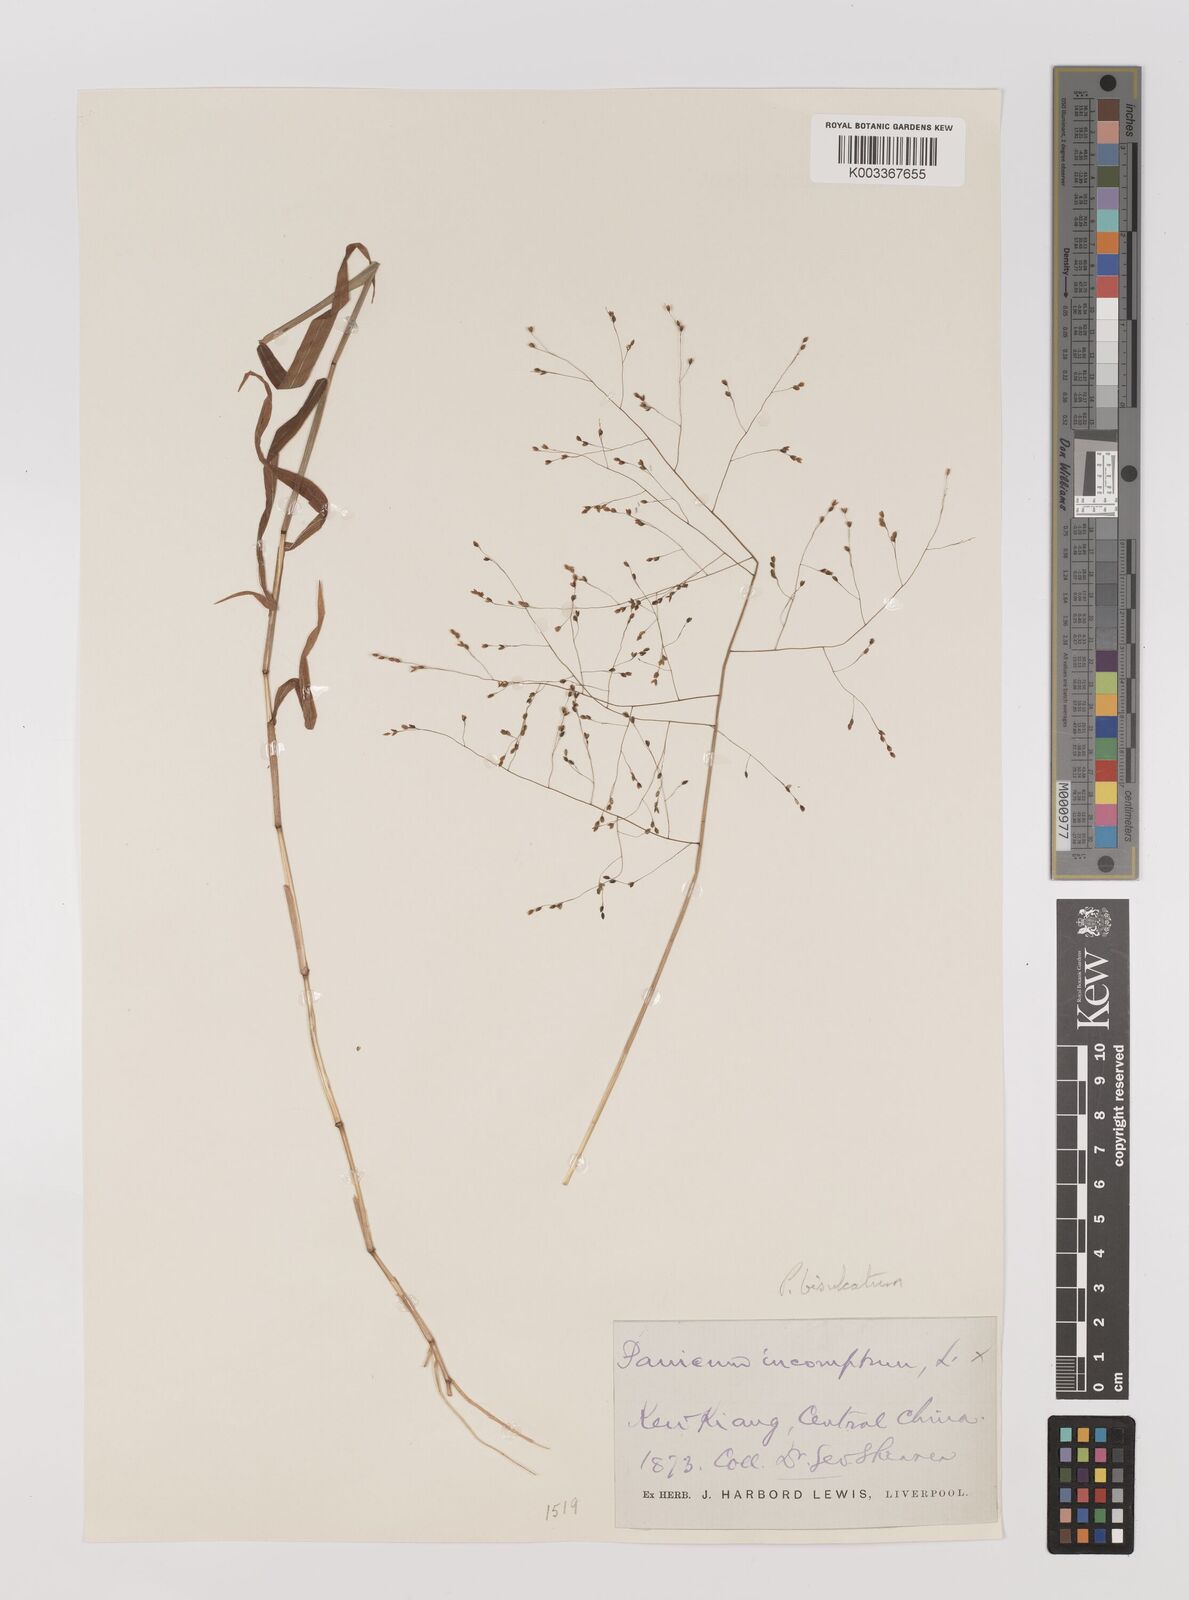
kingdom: Plantae
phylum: Tracheophyta
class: Liliopsida
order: Poales
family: Poaceae
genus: Panicum
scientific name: Panicum bisulcatum
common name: Japanese panicgrass
